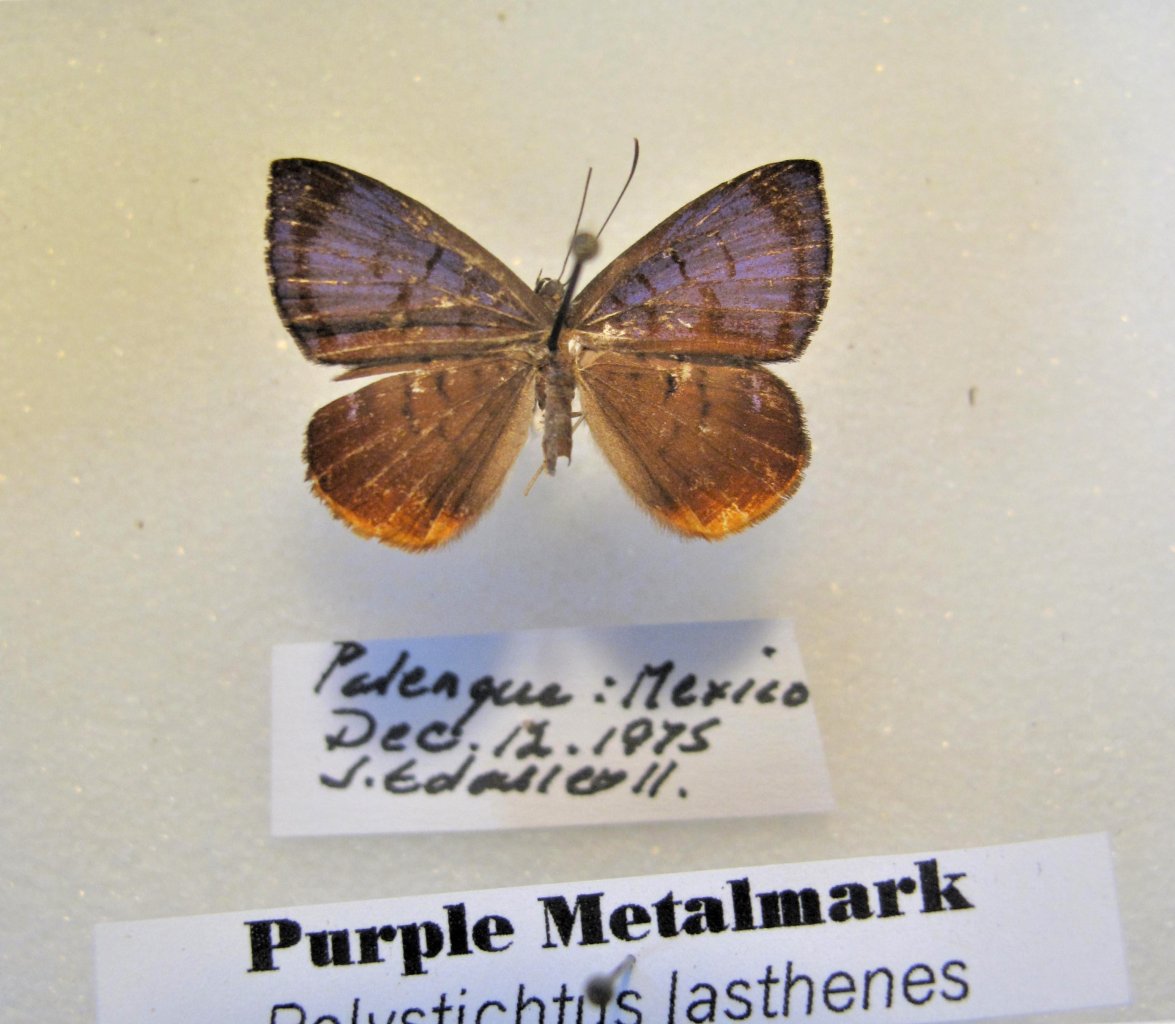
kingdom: Animalia
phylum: Arthropoda
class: Insecta
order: Lepidoptera
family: Riodinidae
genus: Hypophylla
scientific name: Hypophylla martia
